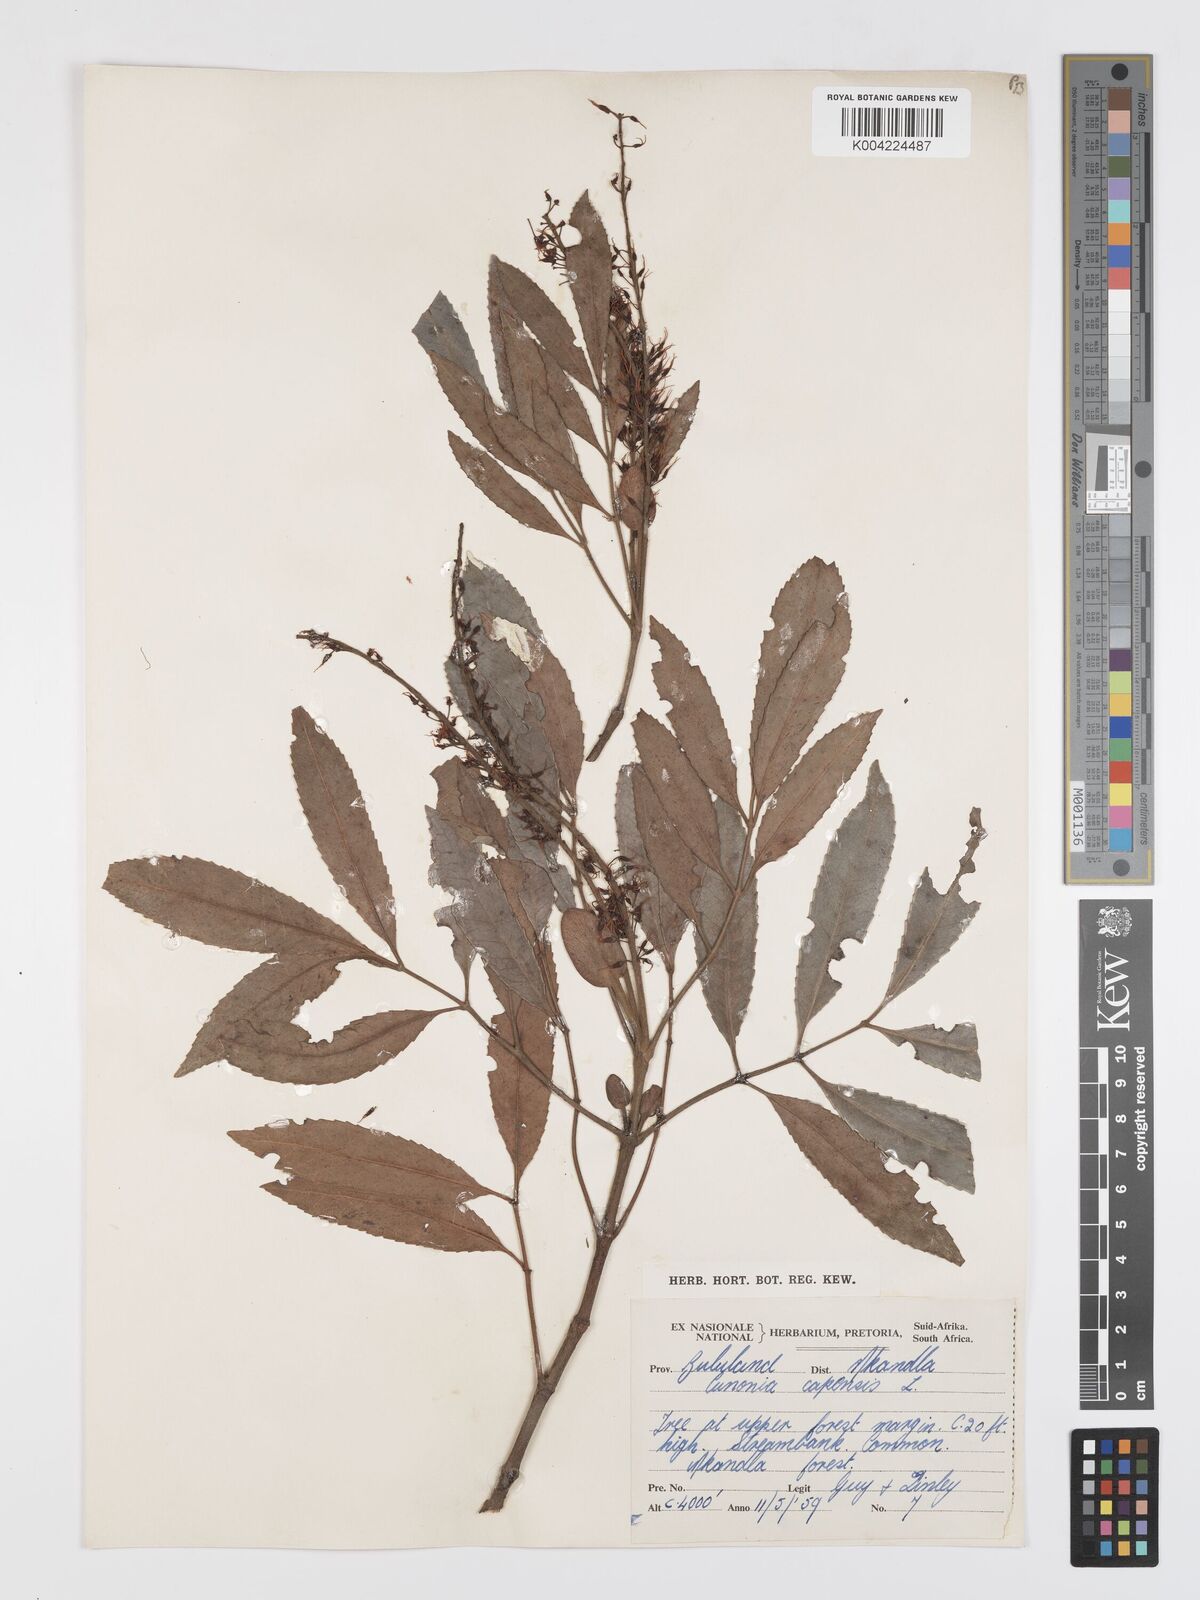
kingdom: Plantae
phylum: Tracheophyta
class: Magnoliopsida
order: Oxalidales
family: Cunoniaceae
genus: Cunonia
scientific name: Cunonia capensis
